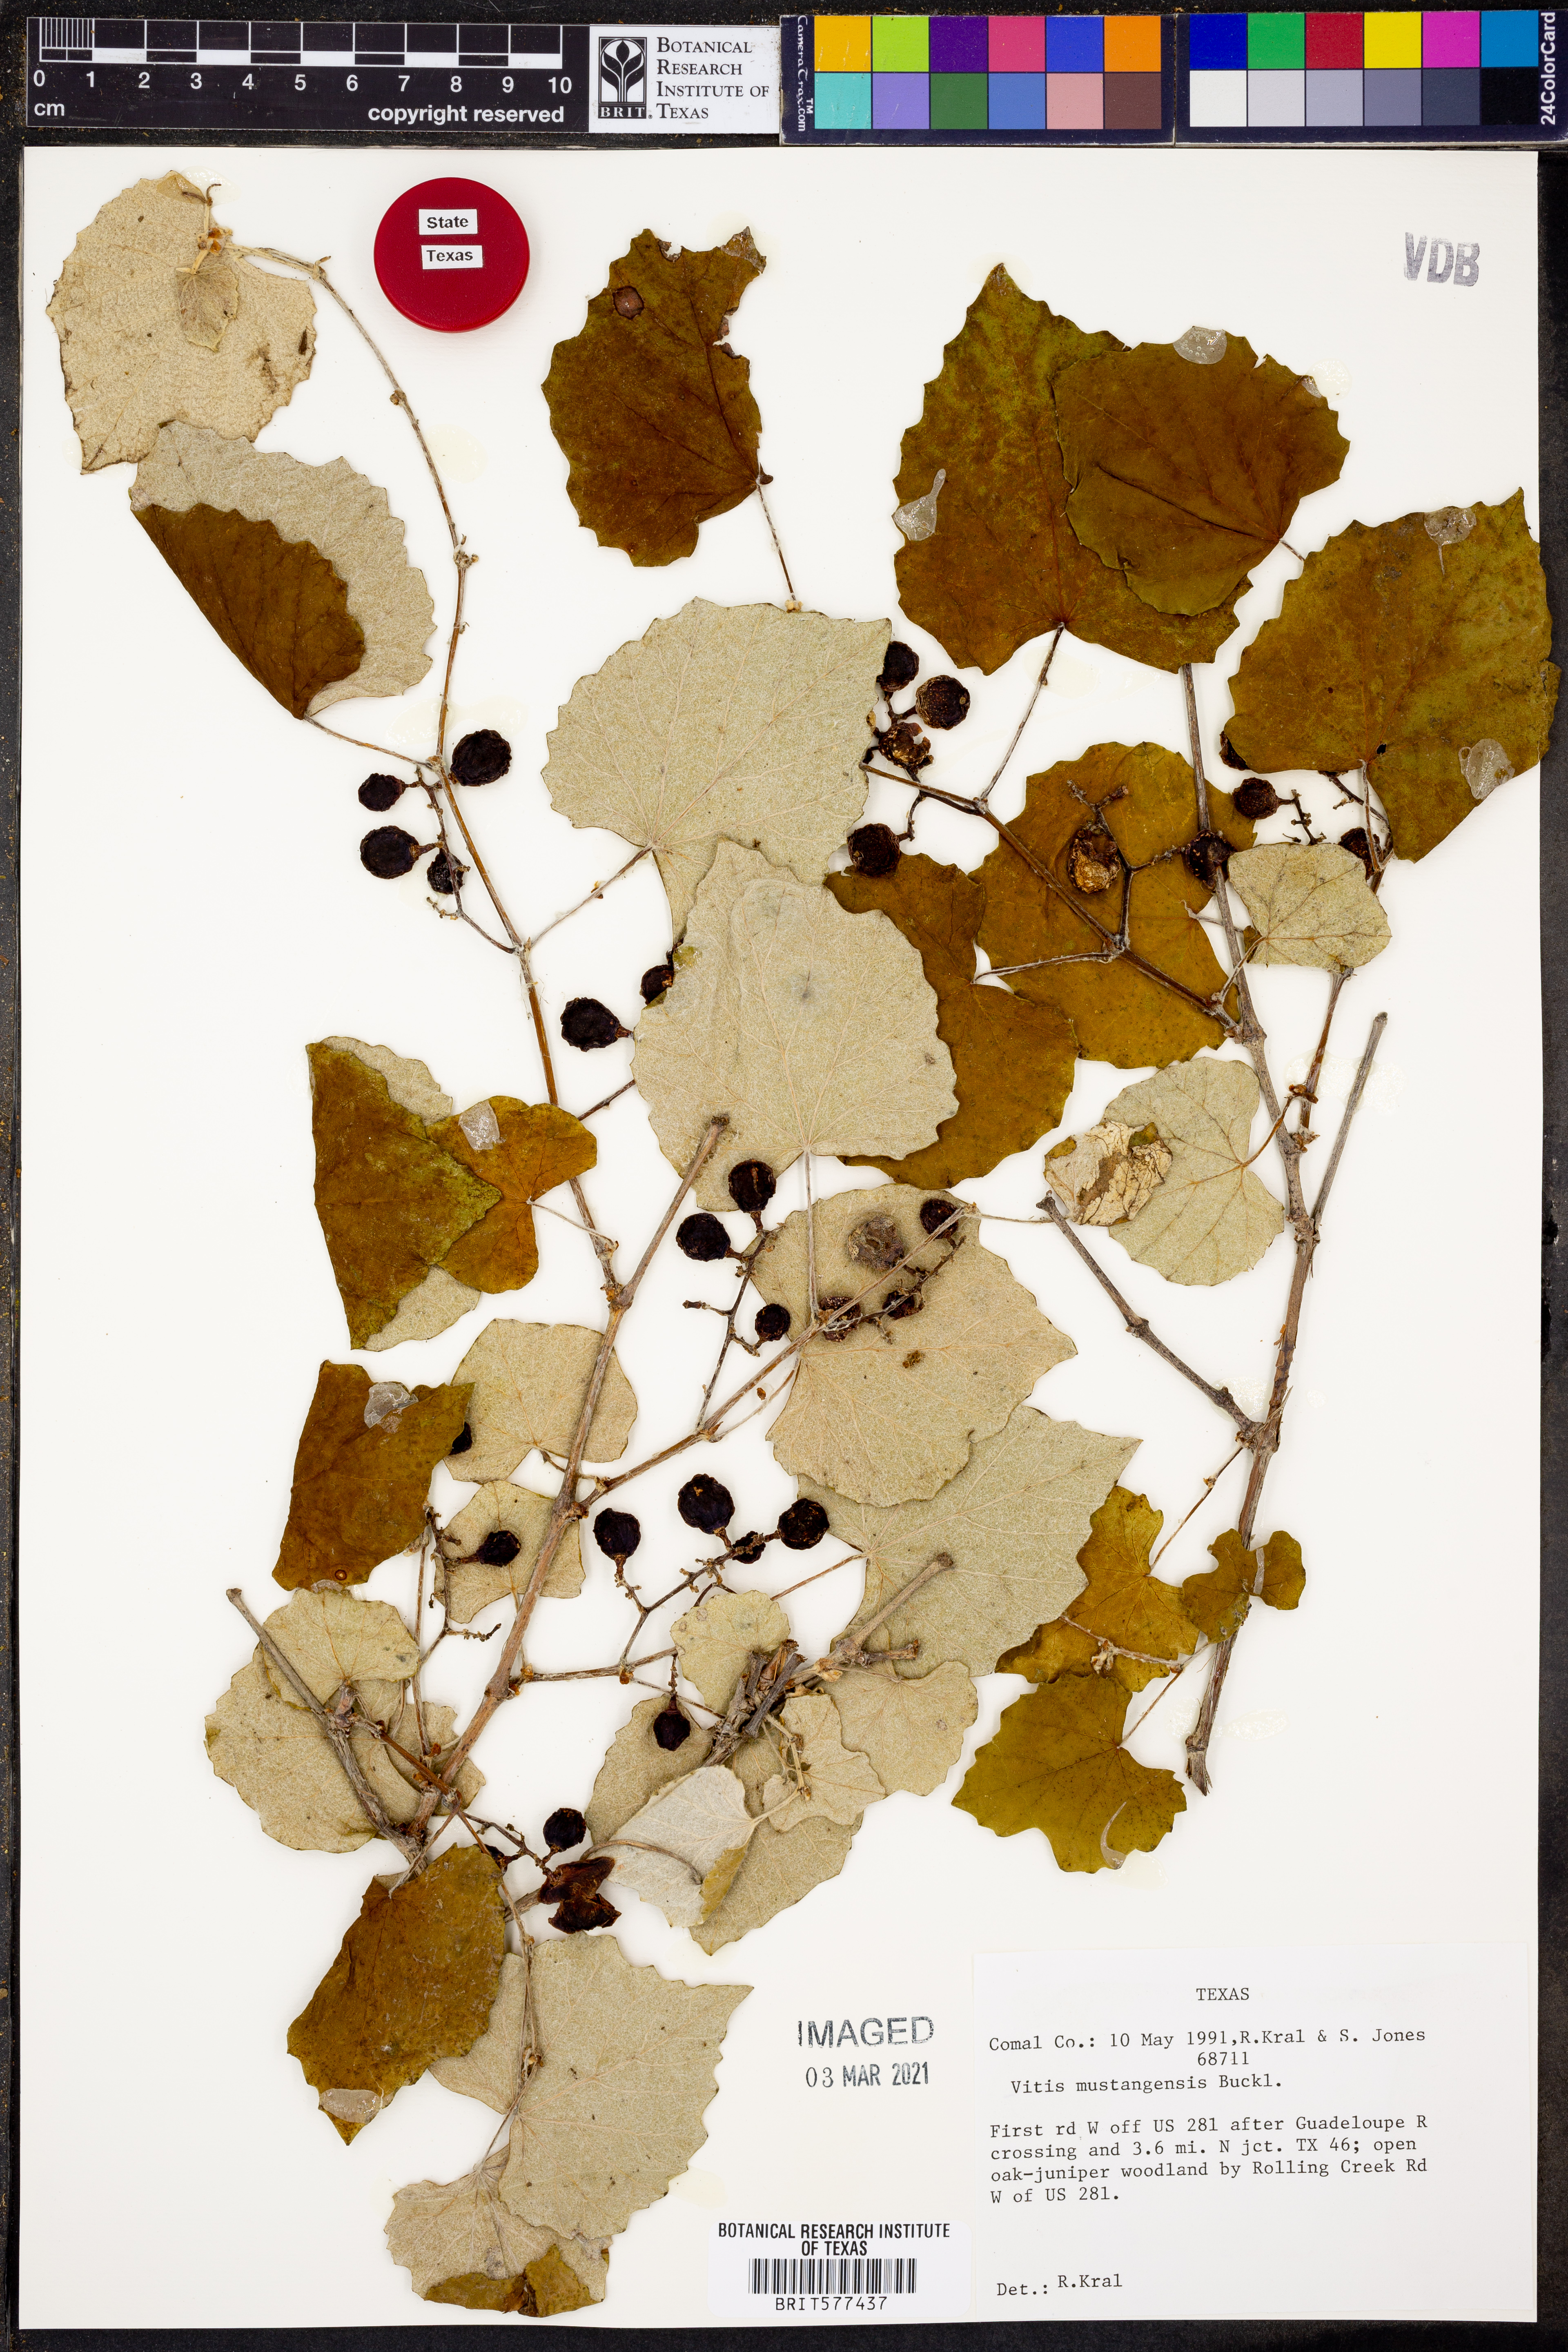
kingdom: Plantae
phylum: Tracheophyta
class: Magnoliopsida
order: Vitales
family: Vitaceae
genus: Vitis
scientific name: Vitis mustangensis
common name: Mustang grape
